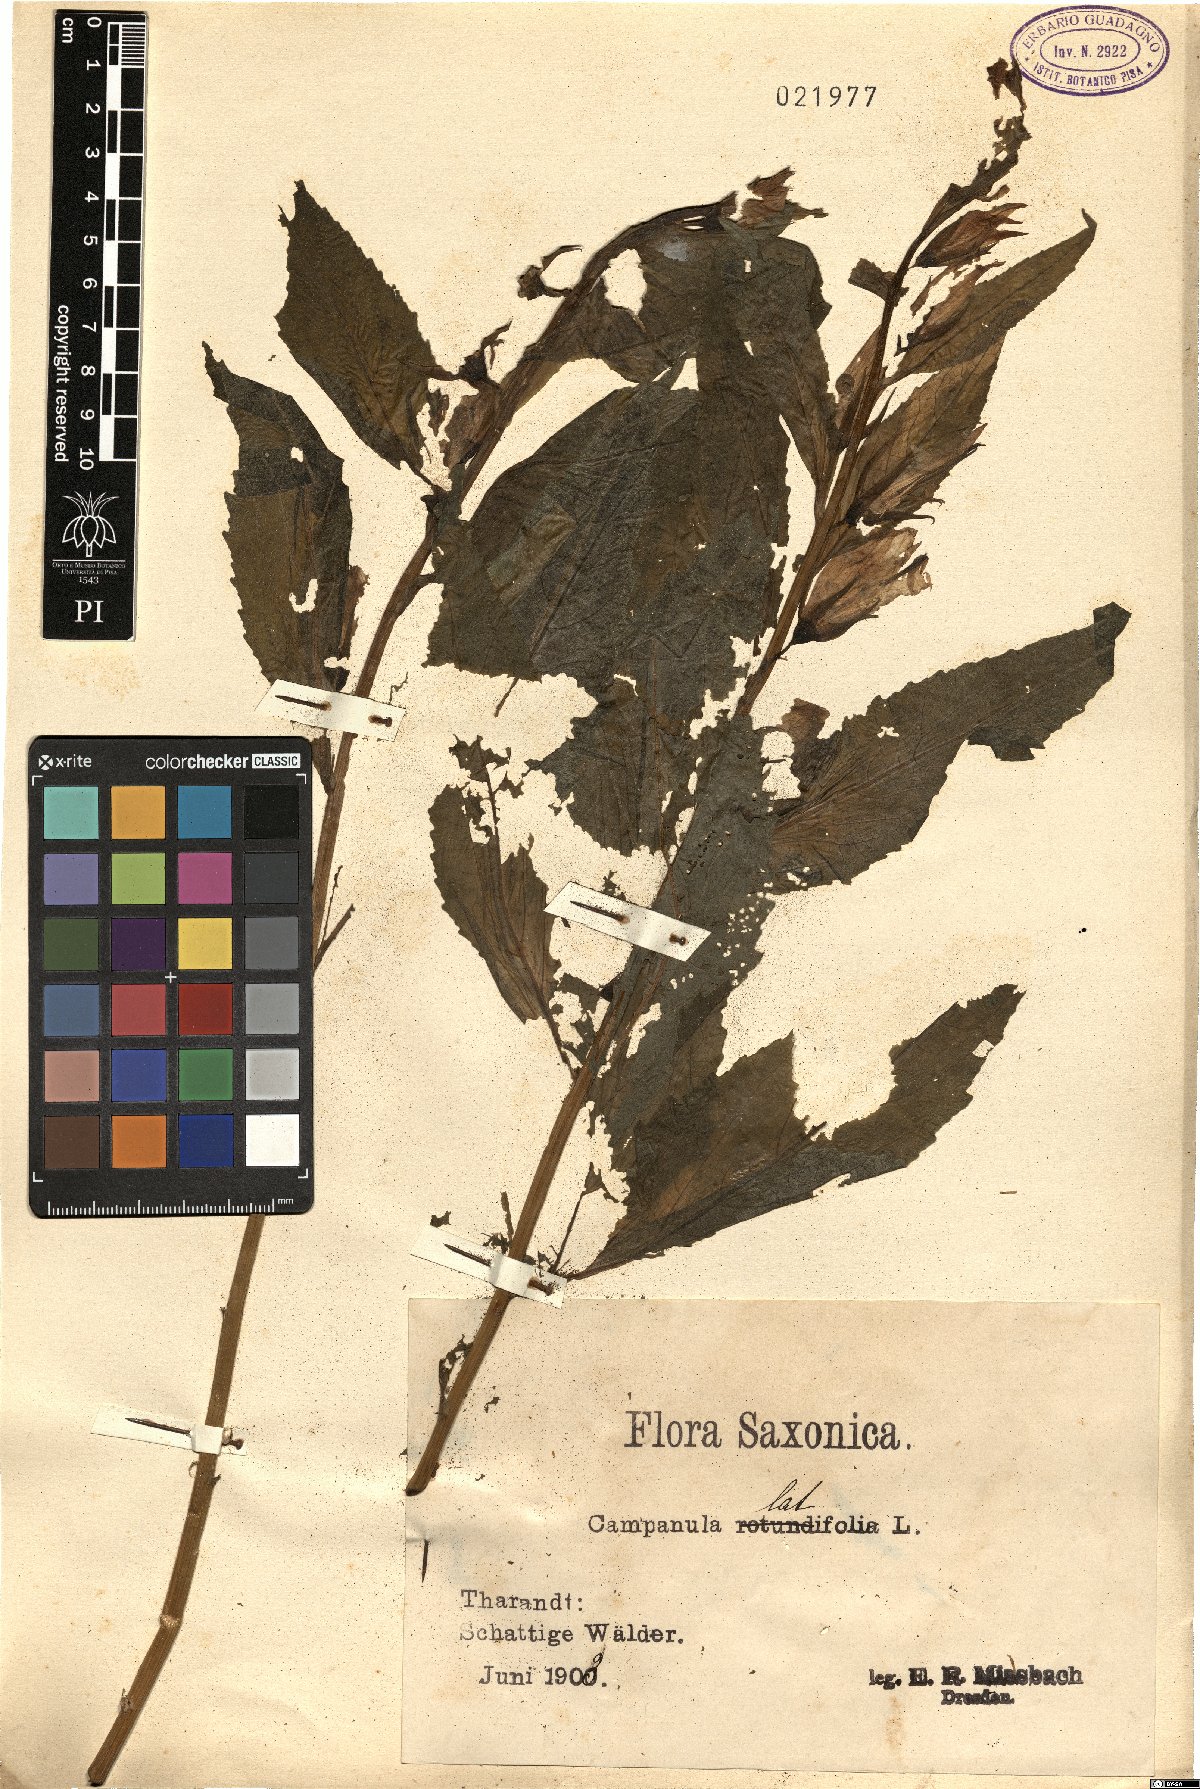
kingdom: Plantae
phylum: Tracheophyta
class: Magnoliopsida
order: Asterales
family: Campanulaceae
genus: Campanula
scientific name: Campanula latifolia
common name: Giant bellflower
